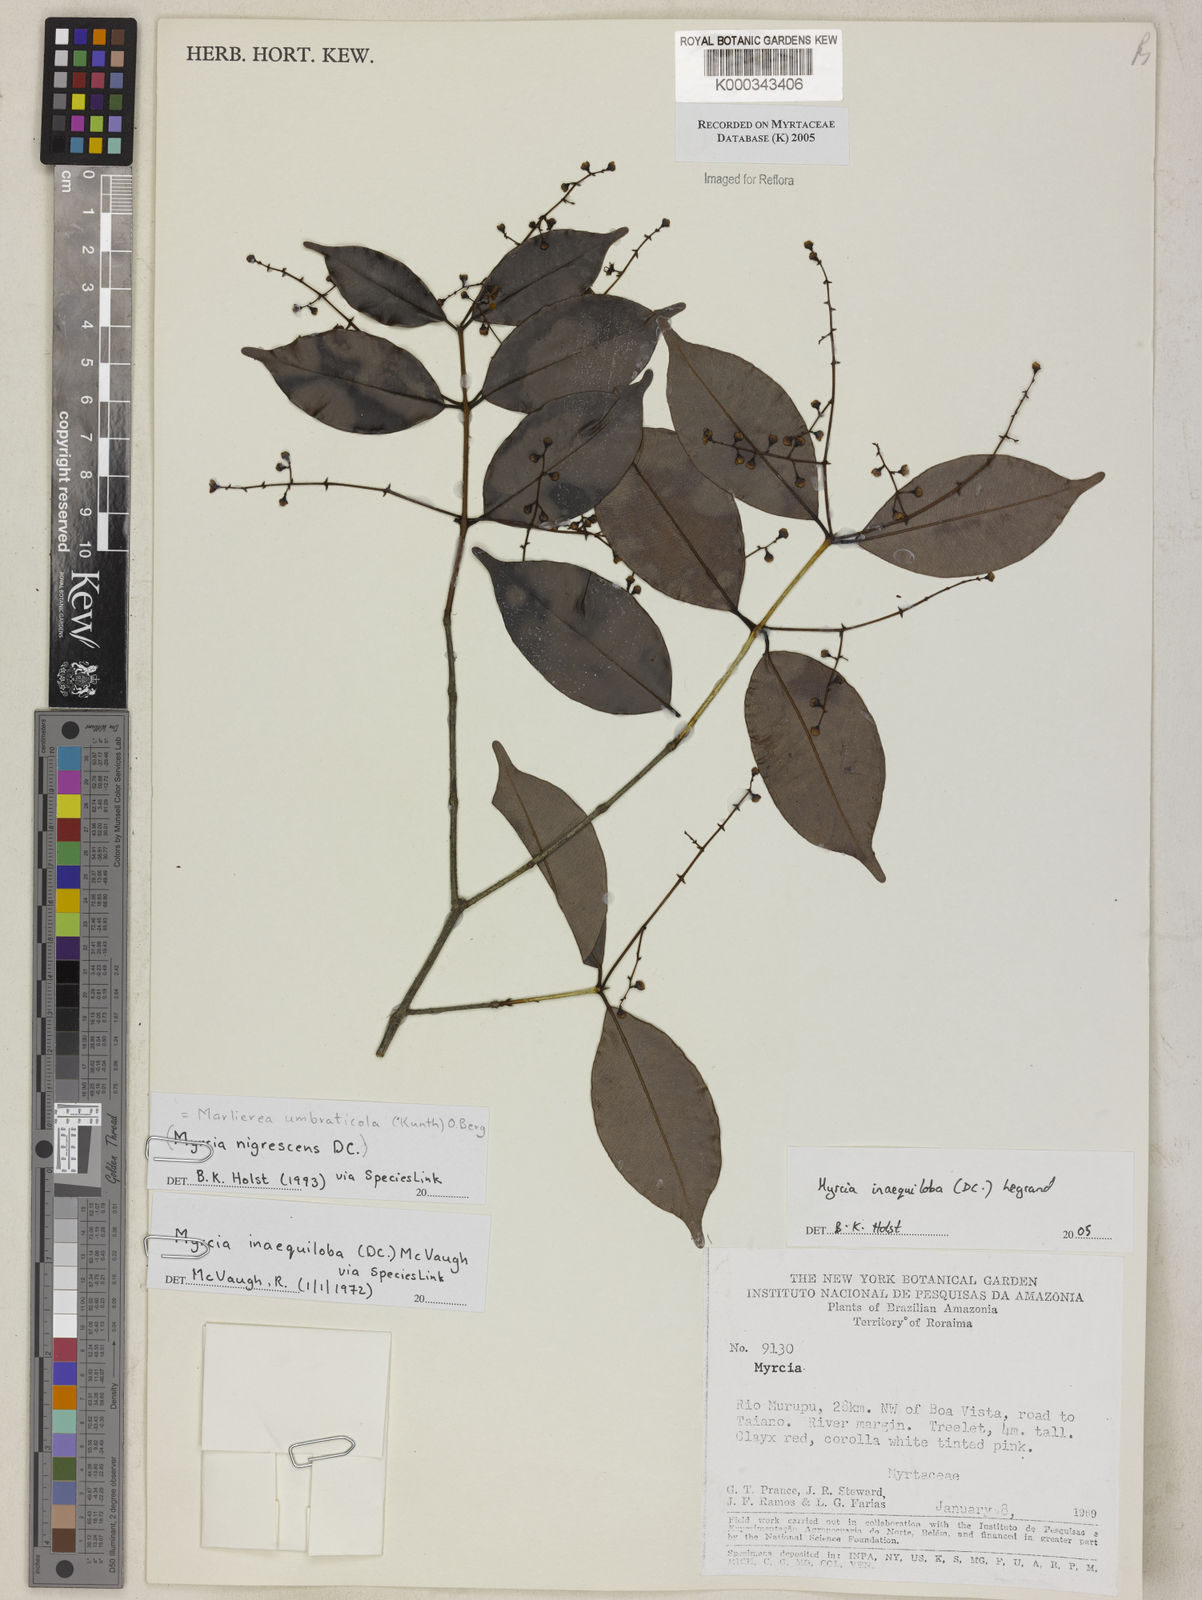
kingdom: Plantae
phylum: Tracheophyta
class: Magnoliopsida
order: Myrtales
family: Myrtaceae
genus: Myrcia
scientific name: Myrcia
